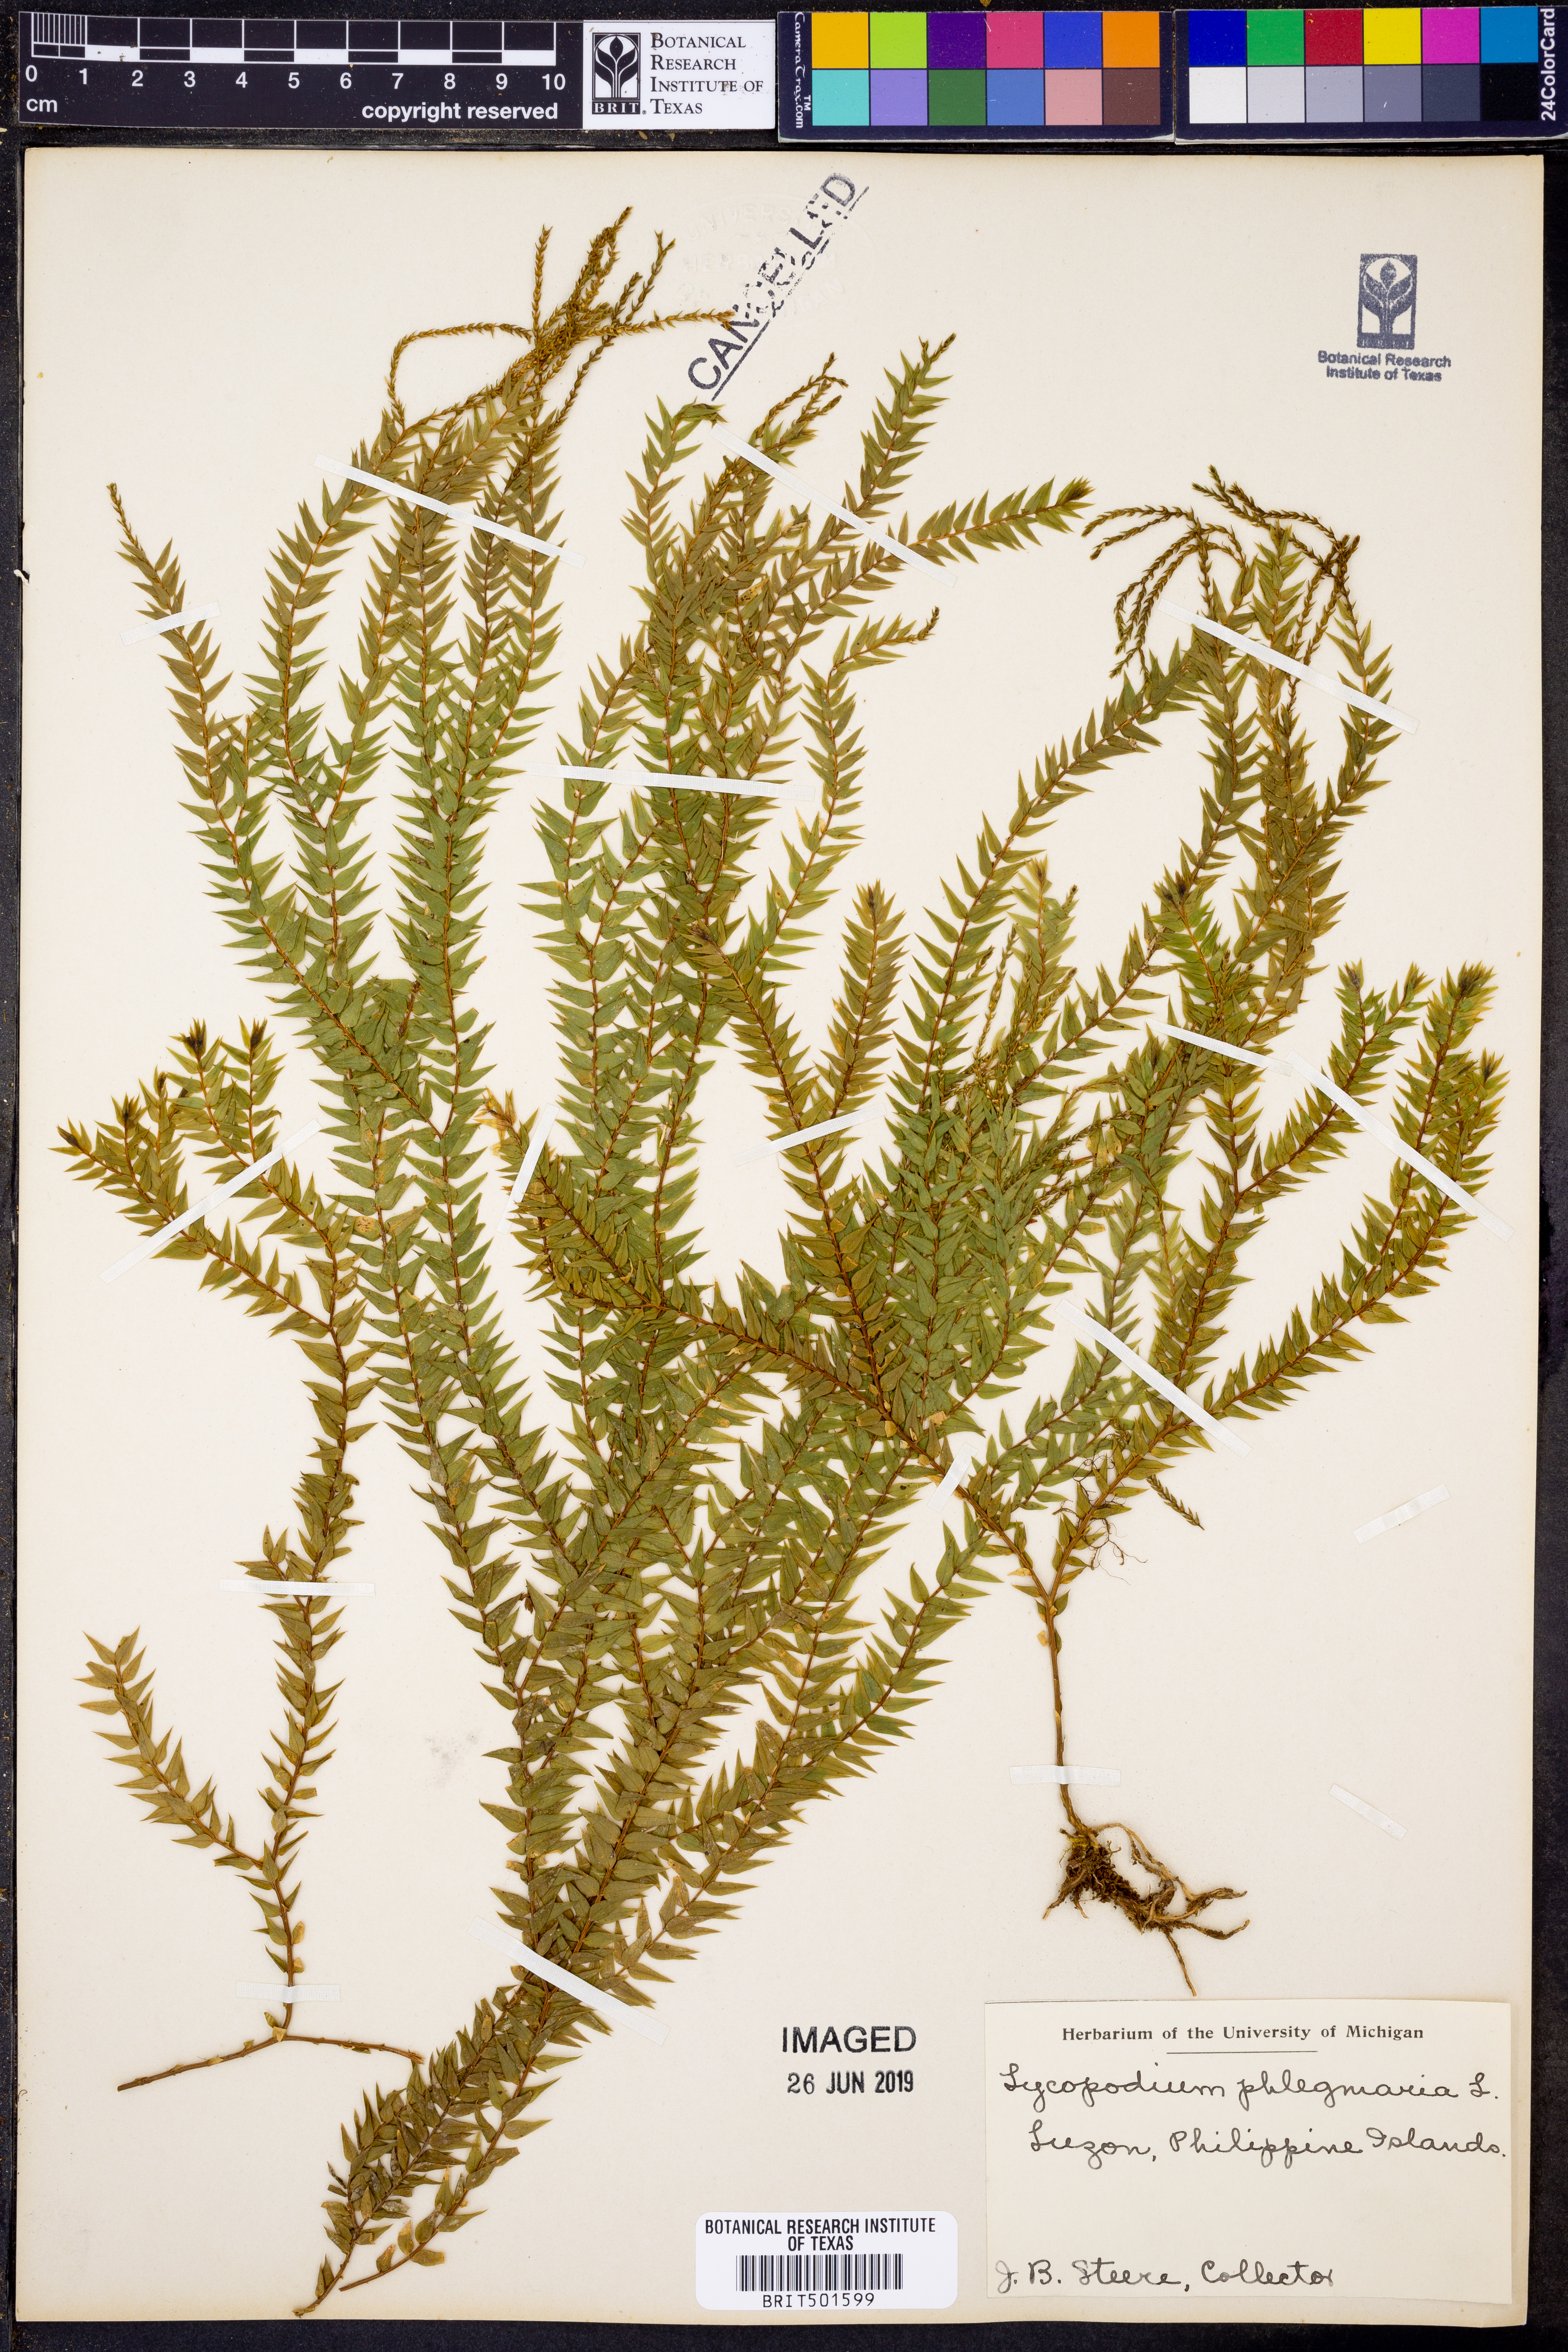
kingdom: Plantae
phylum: Tracheophyta
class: Lycopodiopsida
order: Lycopodiales
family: Lycopodiaceae
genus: Phlegmariurus
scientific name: Phlegmariurus phlegmaria
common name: Coarse tassel-fern
